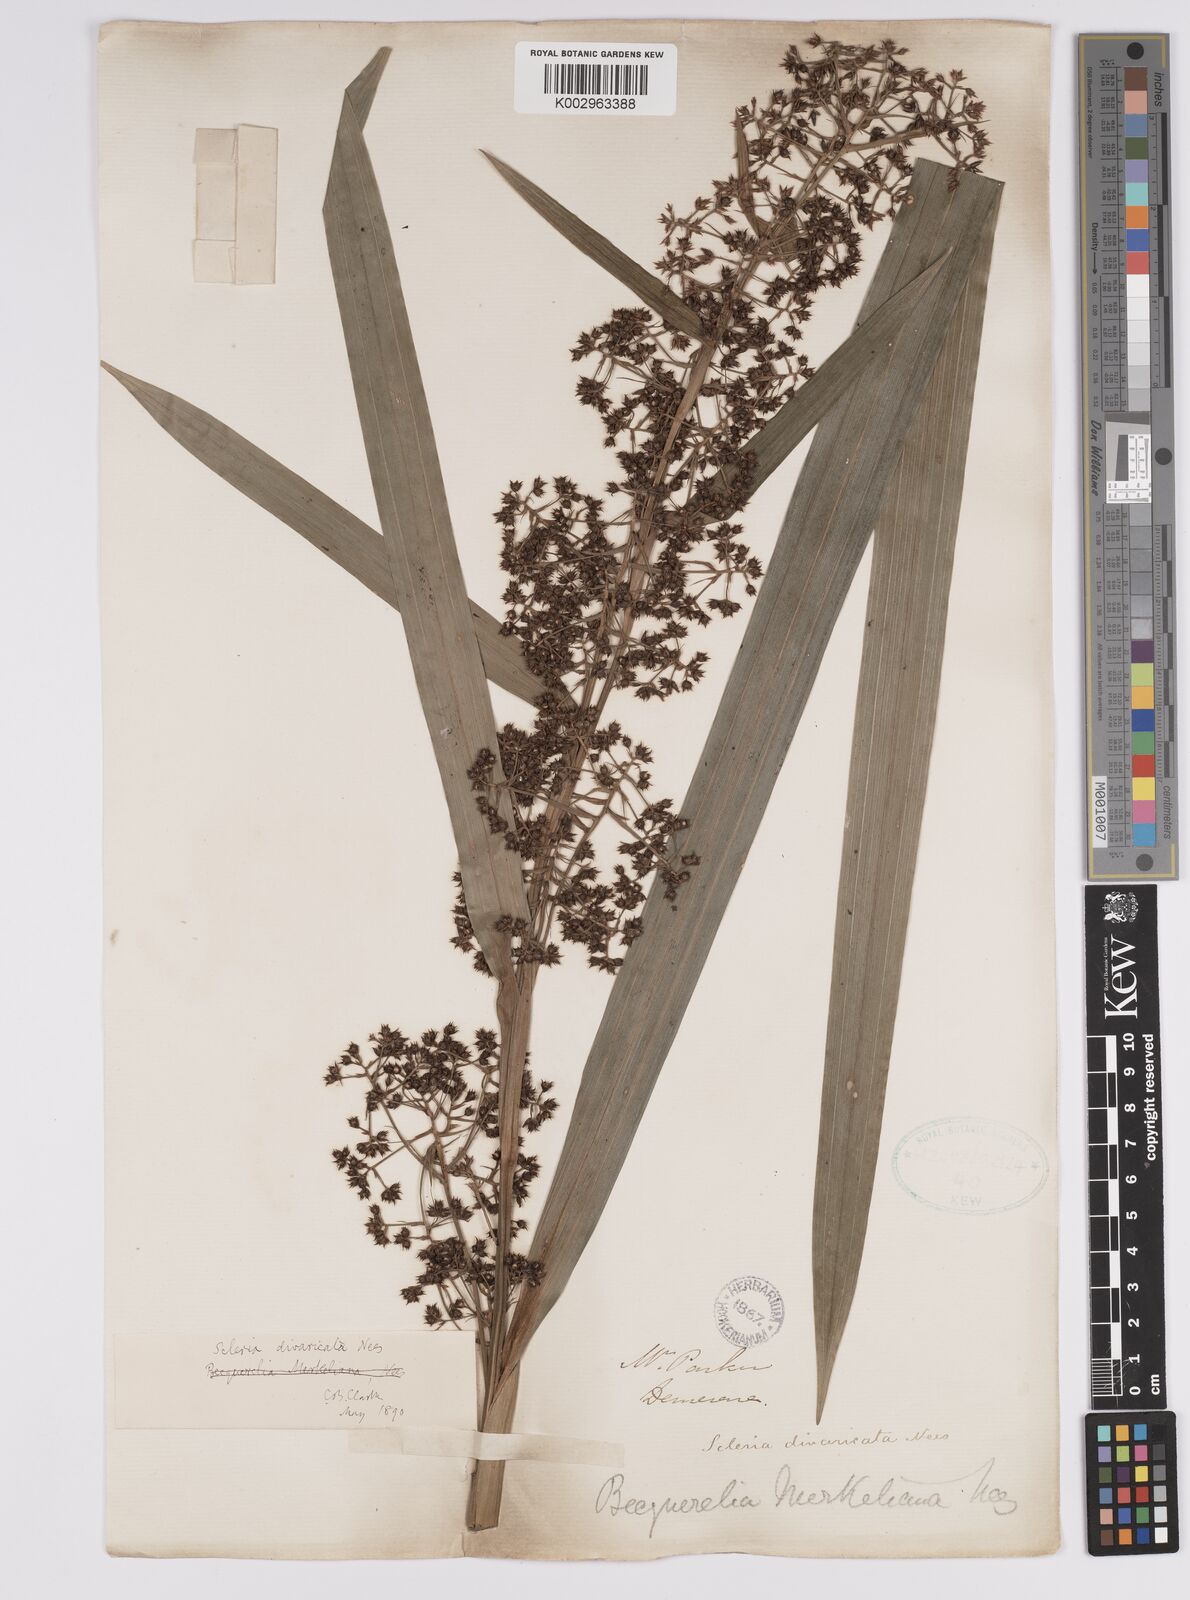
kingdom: Plantae
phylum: Tracheophyta
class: Liliopsida
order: Poales
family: Cyperaceae
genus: Becquerelia
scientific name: Becquerelia merkeliana
